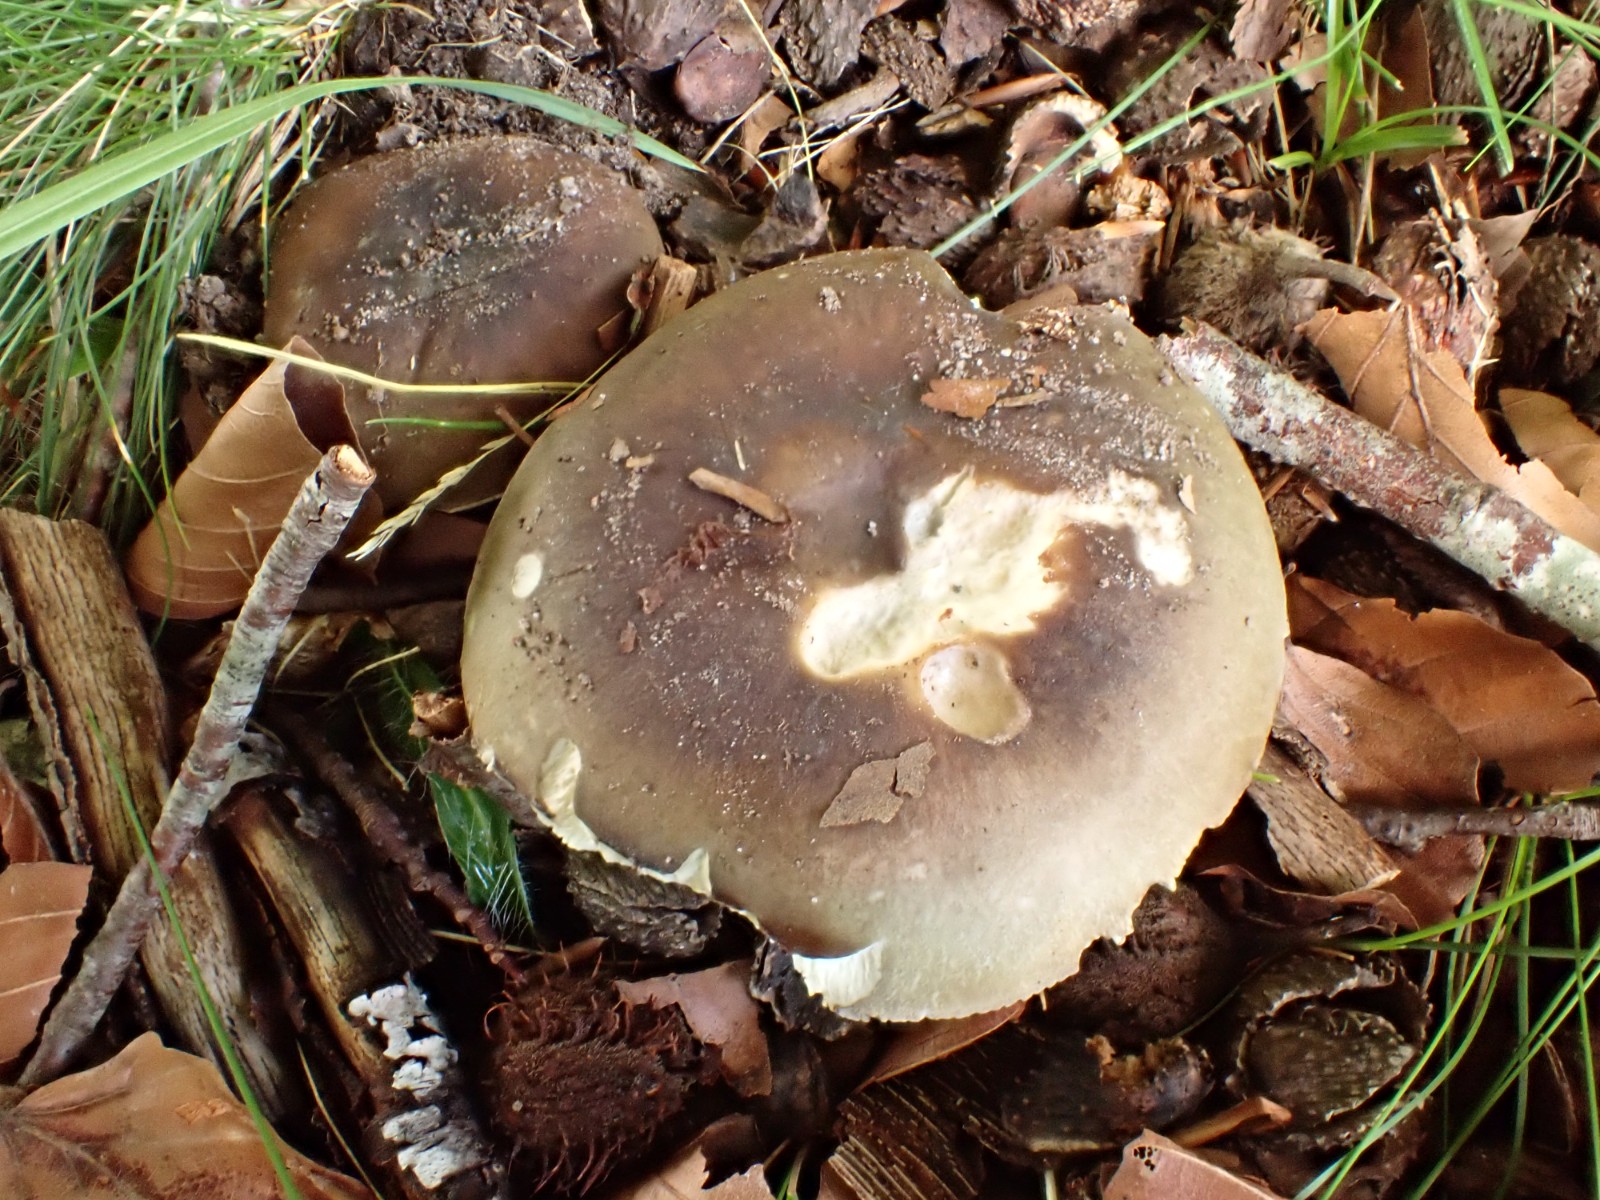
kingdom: Fungi
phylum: Basidiomycota
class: Agaricomycetes
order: Russulales
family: Russulaceae
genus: Russula
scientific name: Russula heterophylla
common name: gaffelbladet skørhat
